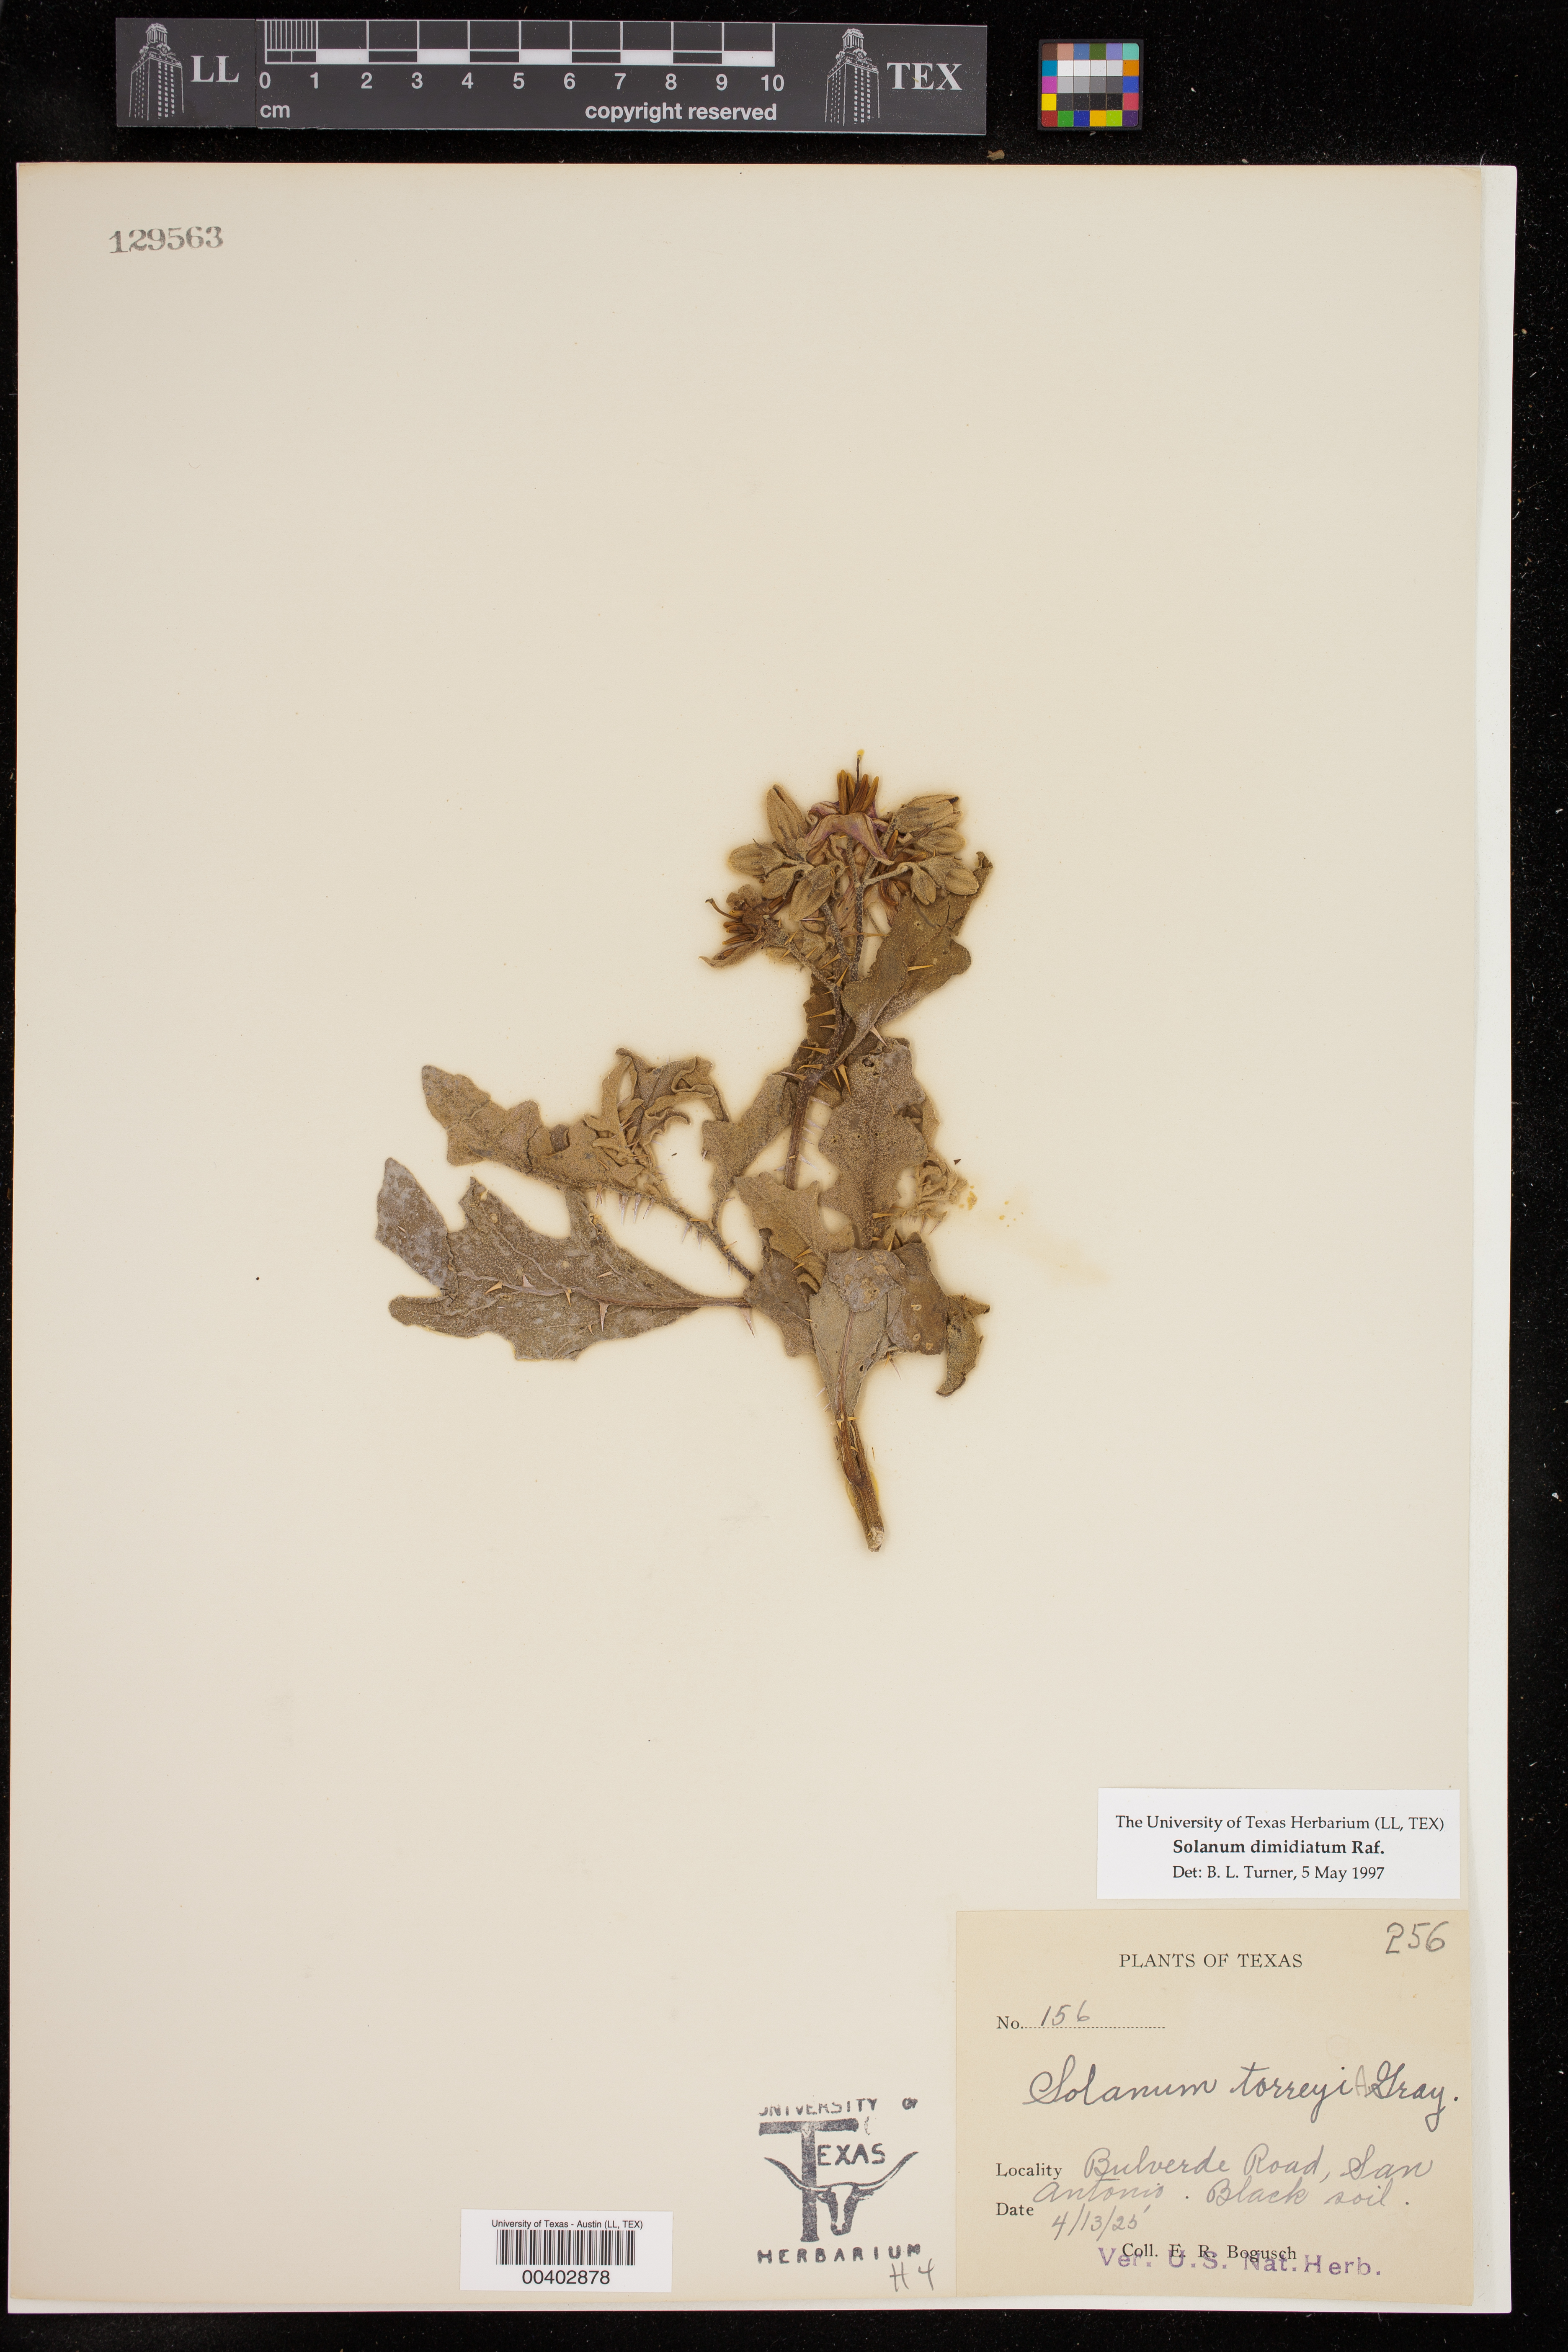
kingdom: Plantae
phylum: Tracheophyta
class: Magnoliopsida
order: Solanales
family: Solanaceae
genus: Solanum
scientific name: Solanum dimidiatum
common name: Carolina horse-nettle
